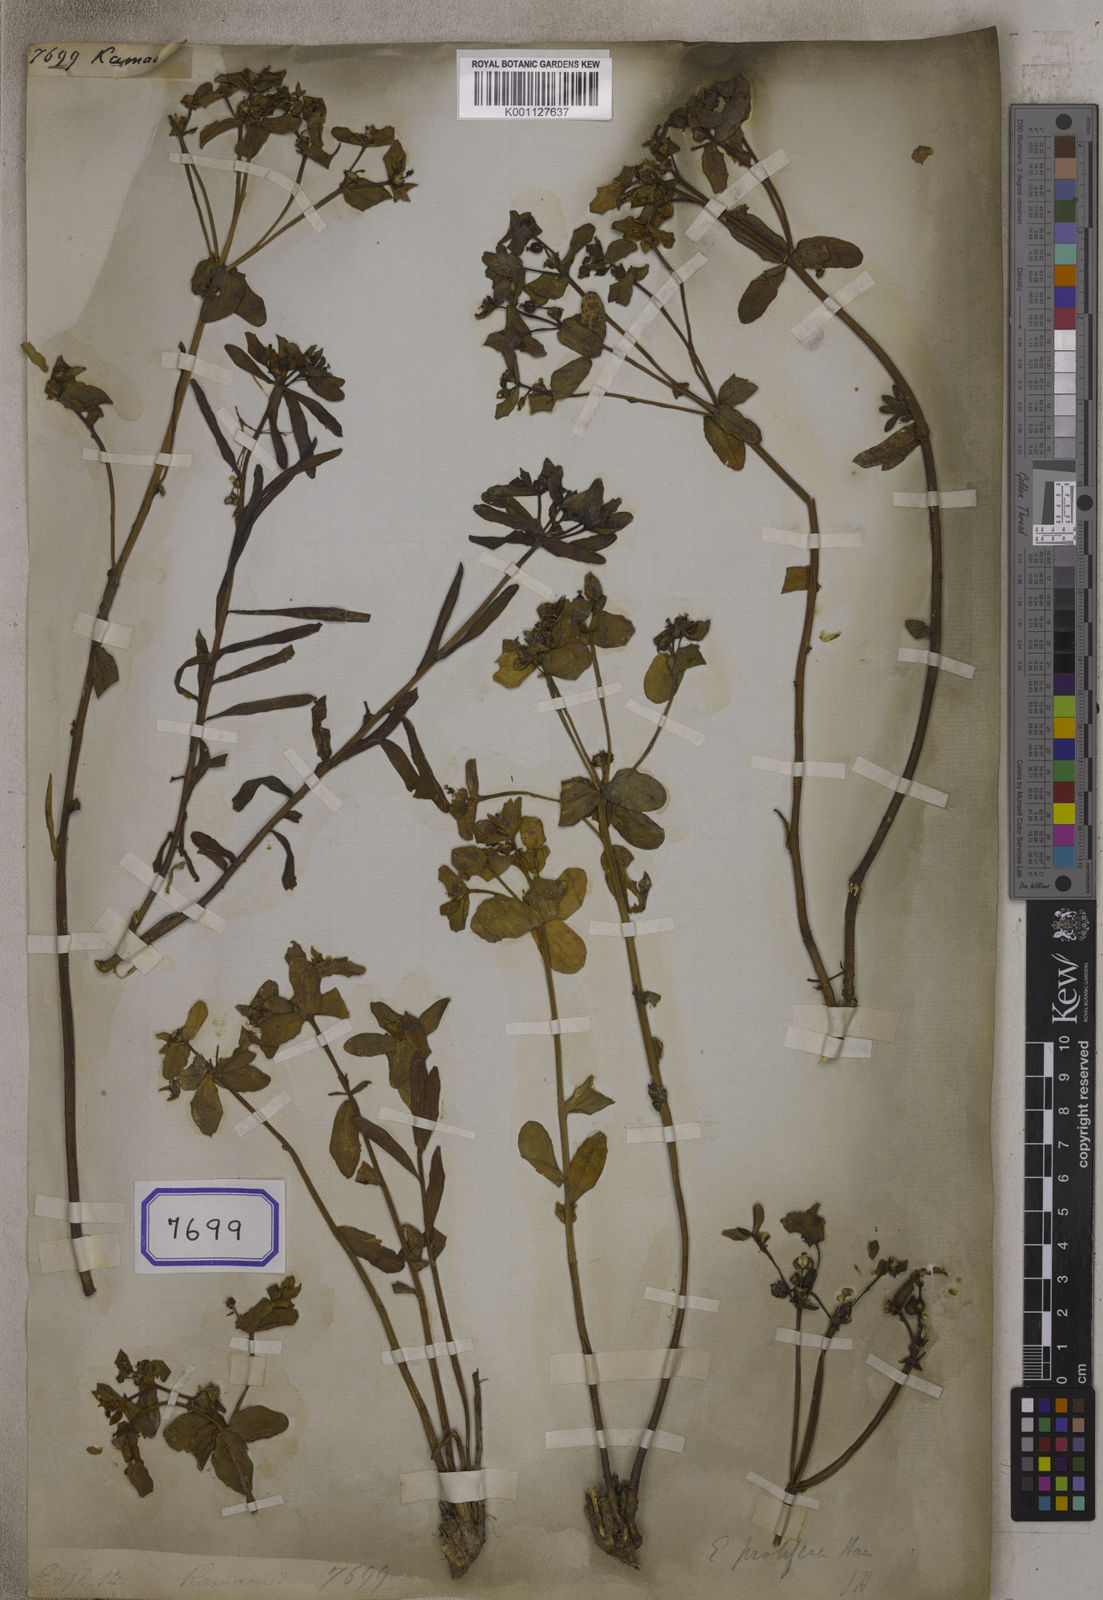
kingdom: Plantae
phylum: Tracheophyta
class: Magnoliopsida
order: Malpighiales
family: Euphorbiaceae
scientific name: Euphorbiaceae
